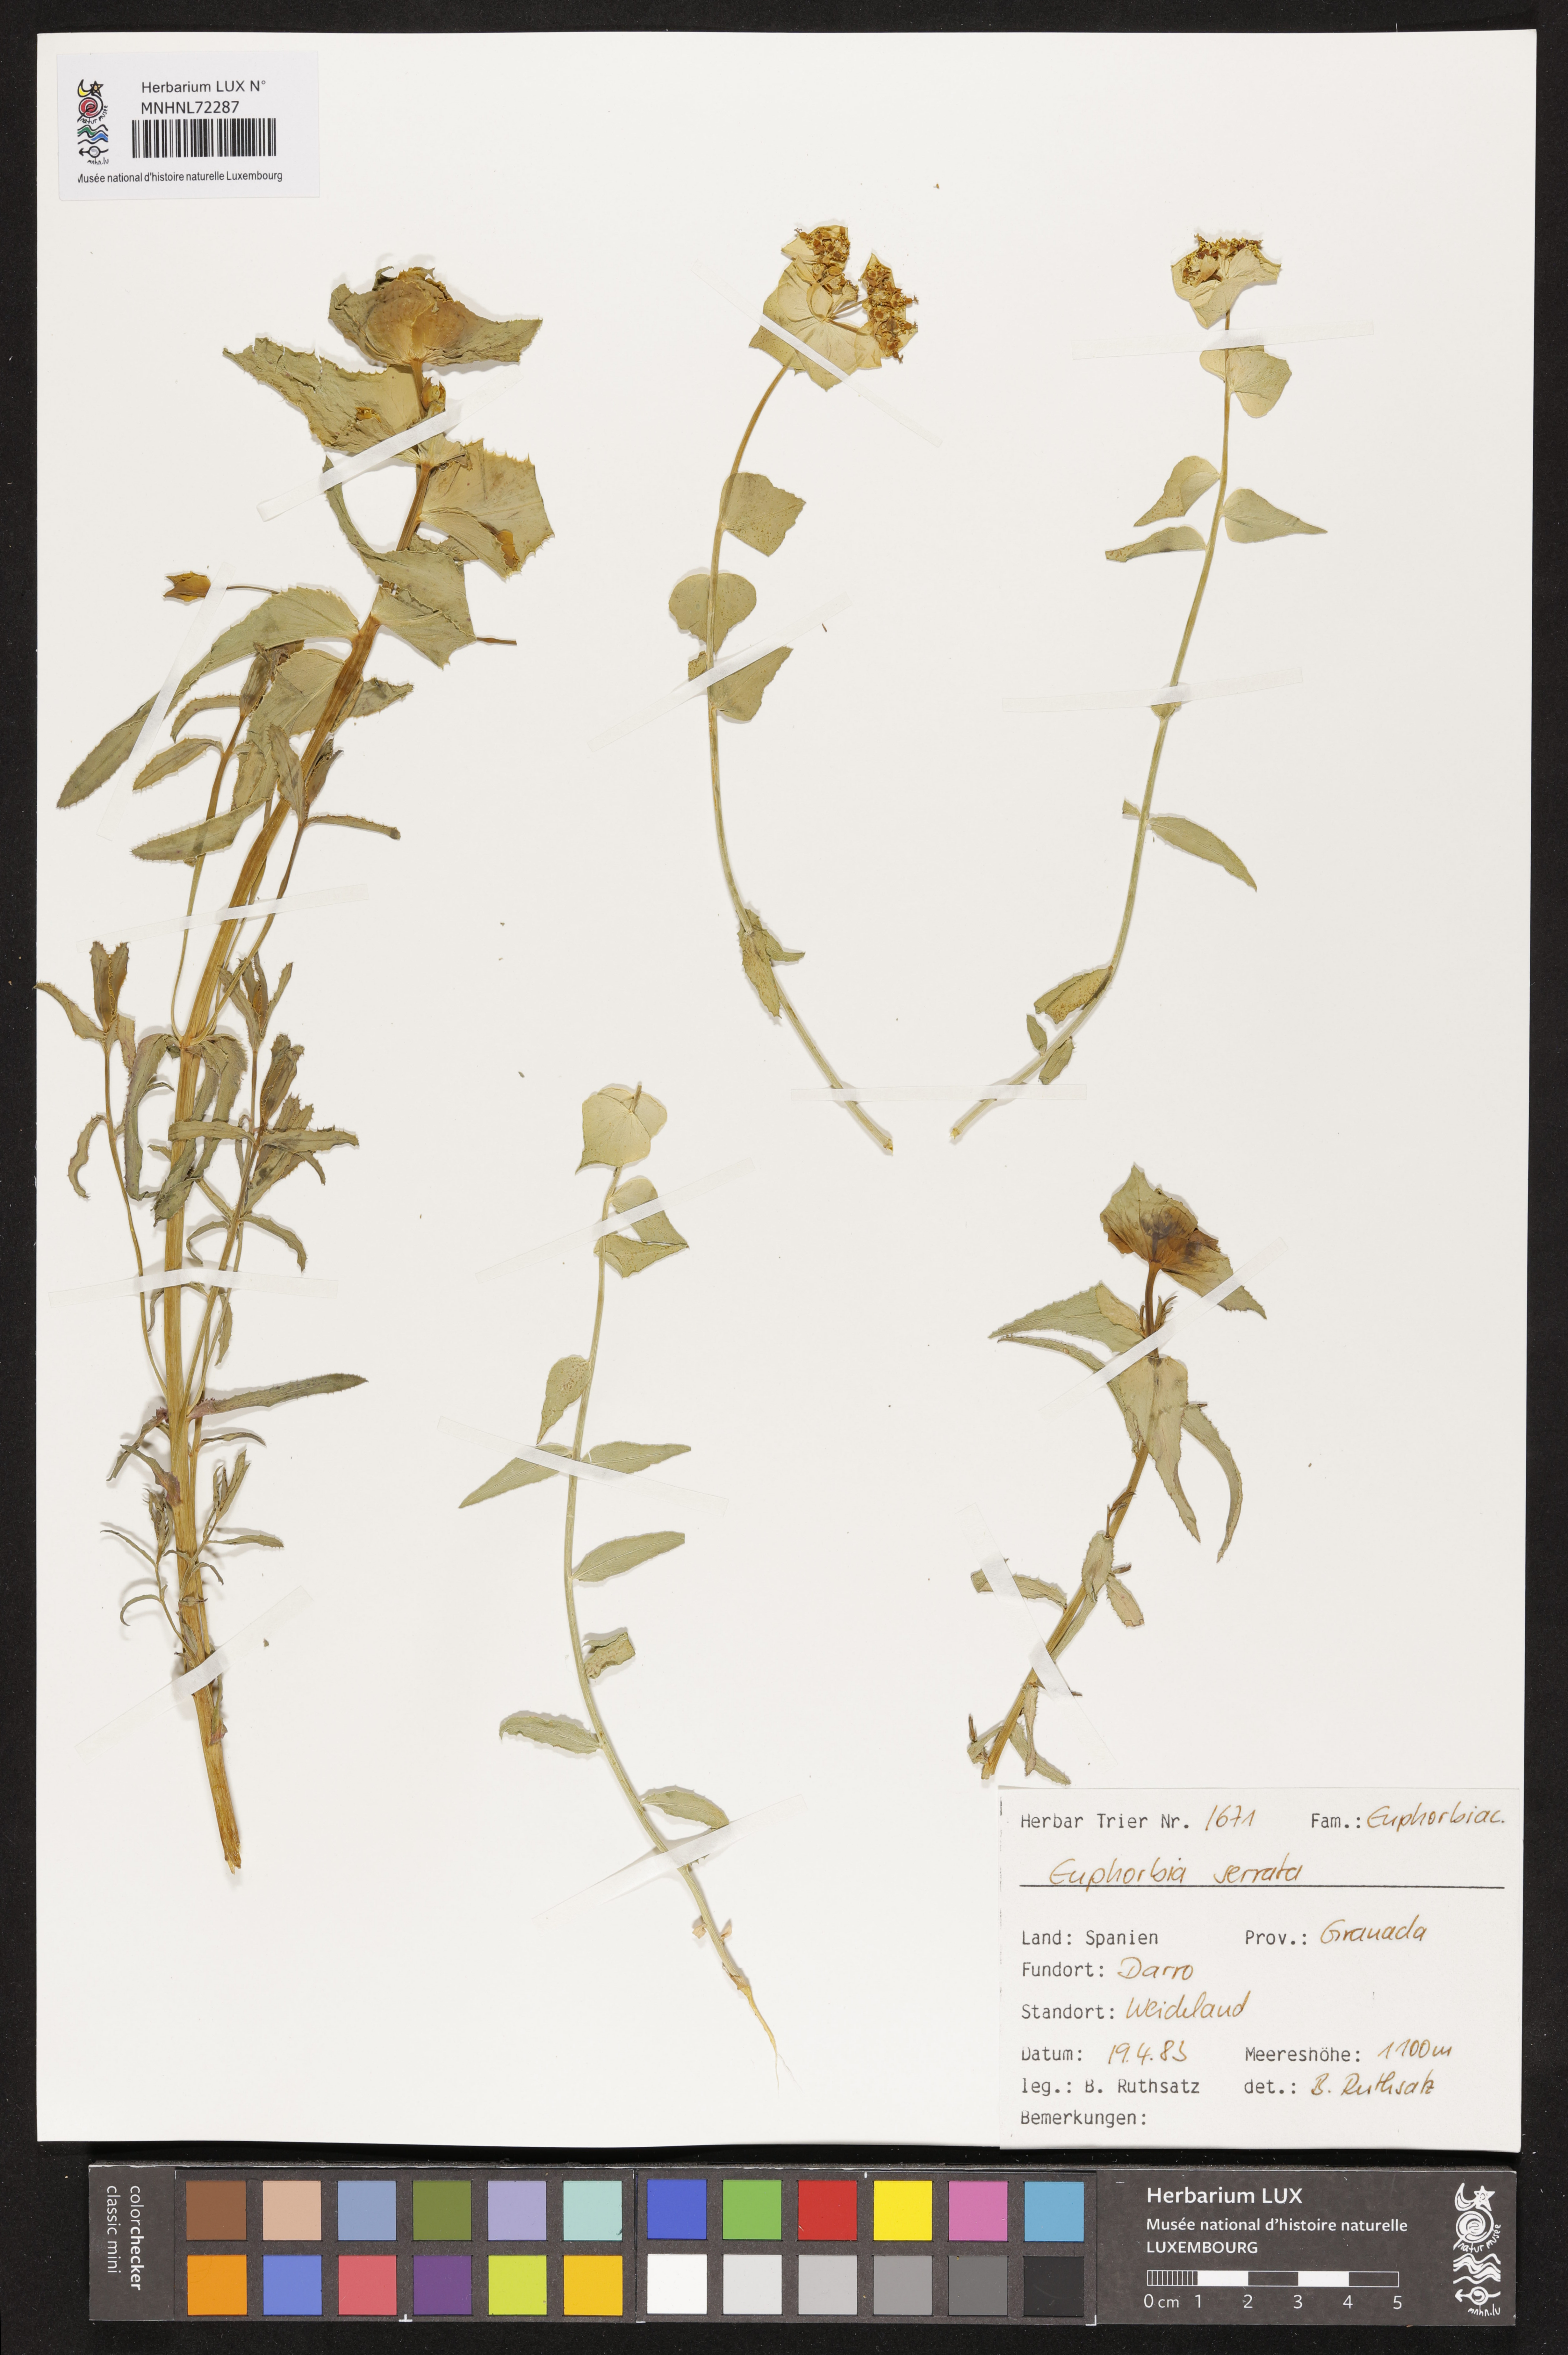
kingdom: Plantae
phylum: Tracheophyta
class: Magnoliopsida
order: Malpighiales
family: Euphorbiaceae
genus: Euphorbia
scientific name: Euphorbia serrata
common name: Serrate spurge
